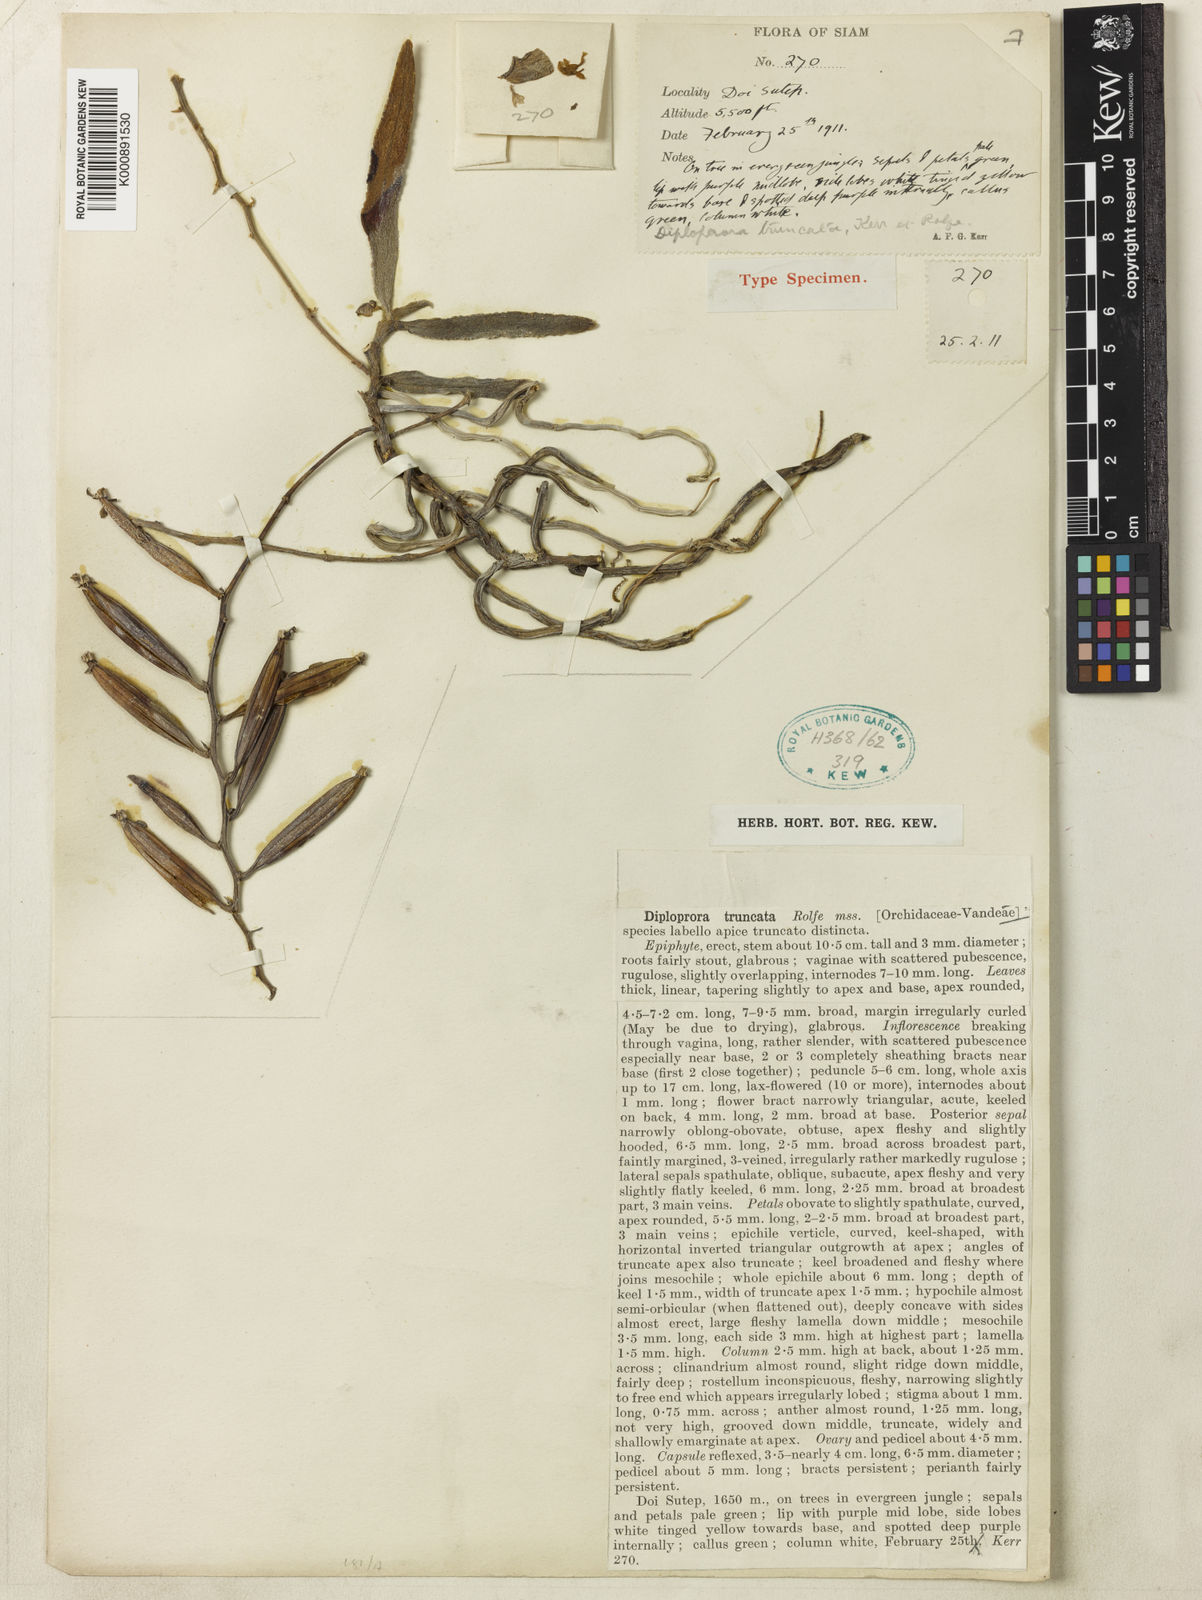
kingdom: Plantae
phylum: Tracheophyta
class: Liliopsida
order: Asparagales
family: Orchidaceae
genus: Diploprora
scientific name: Diploprora truncata
